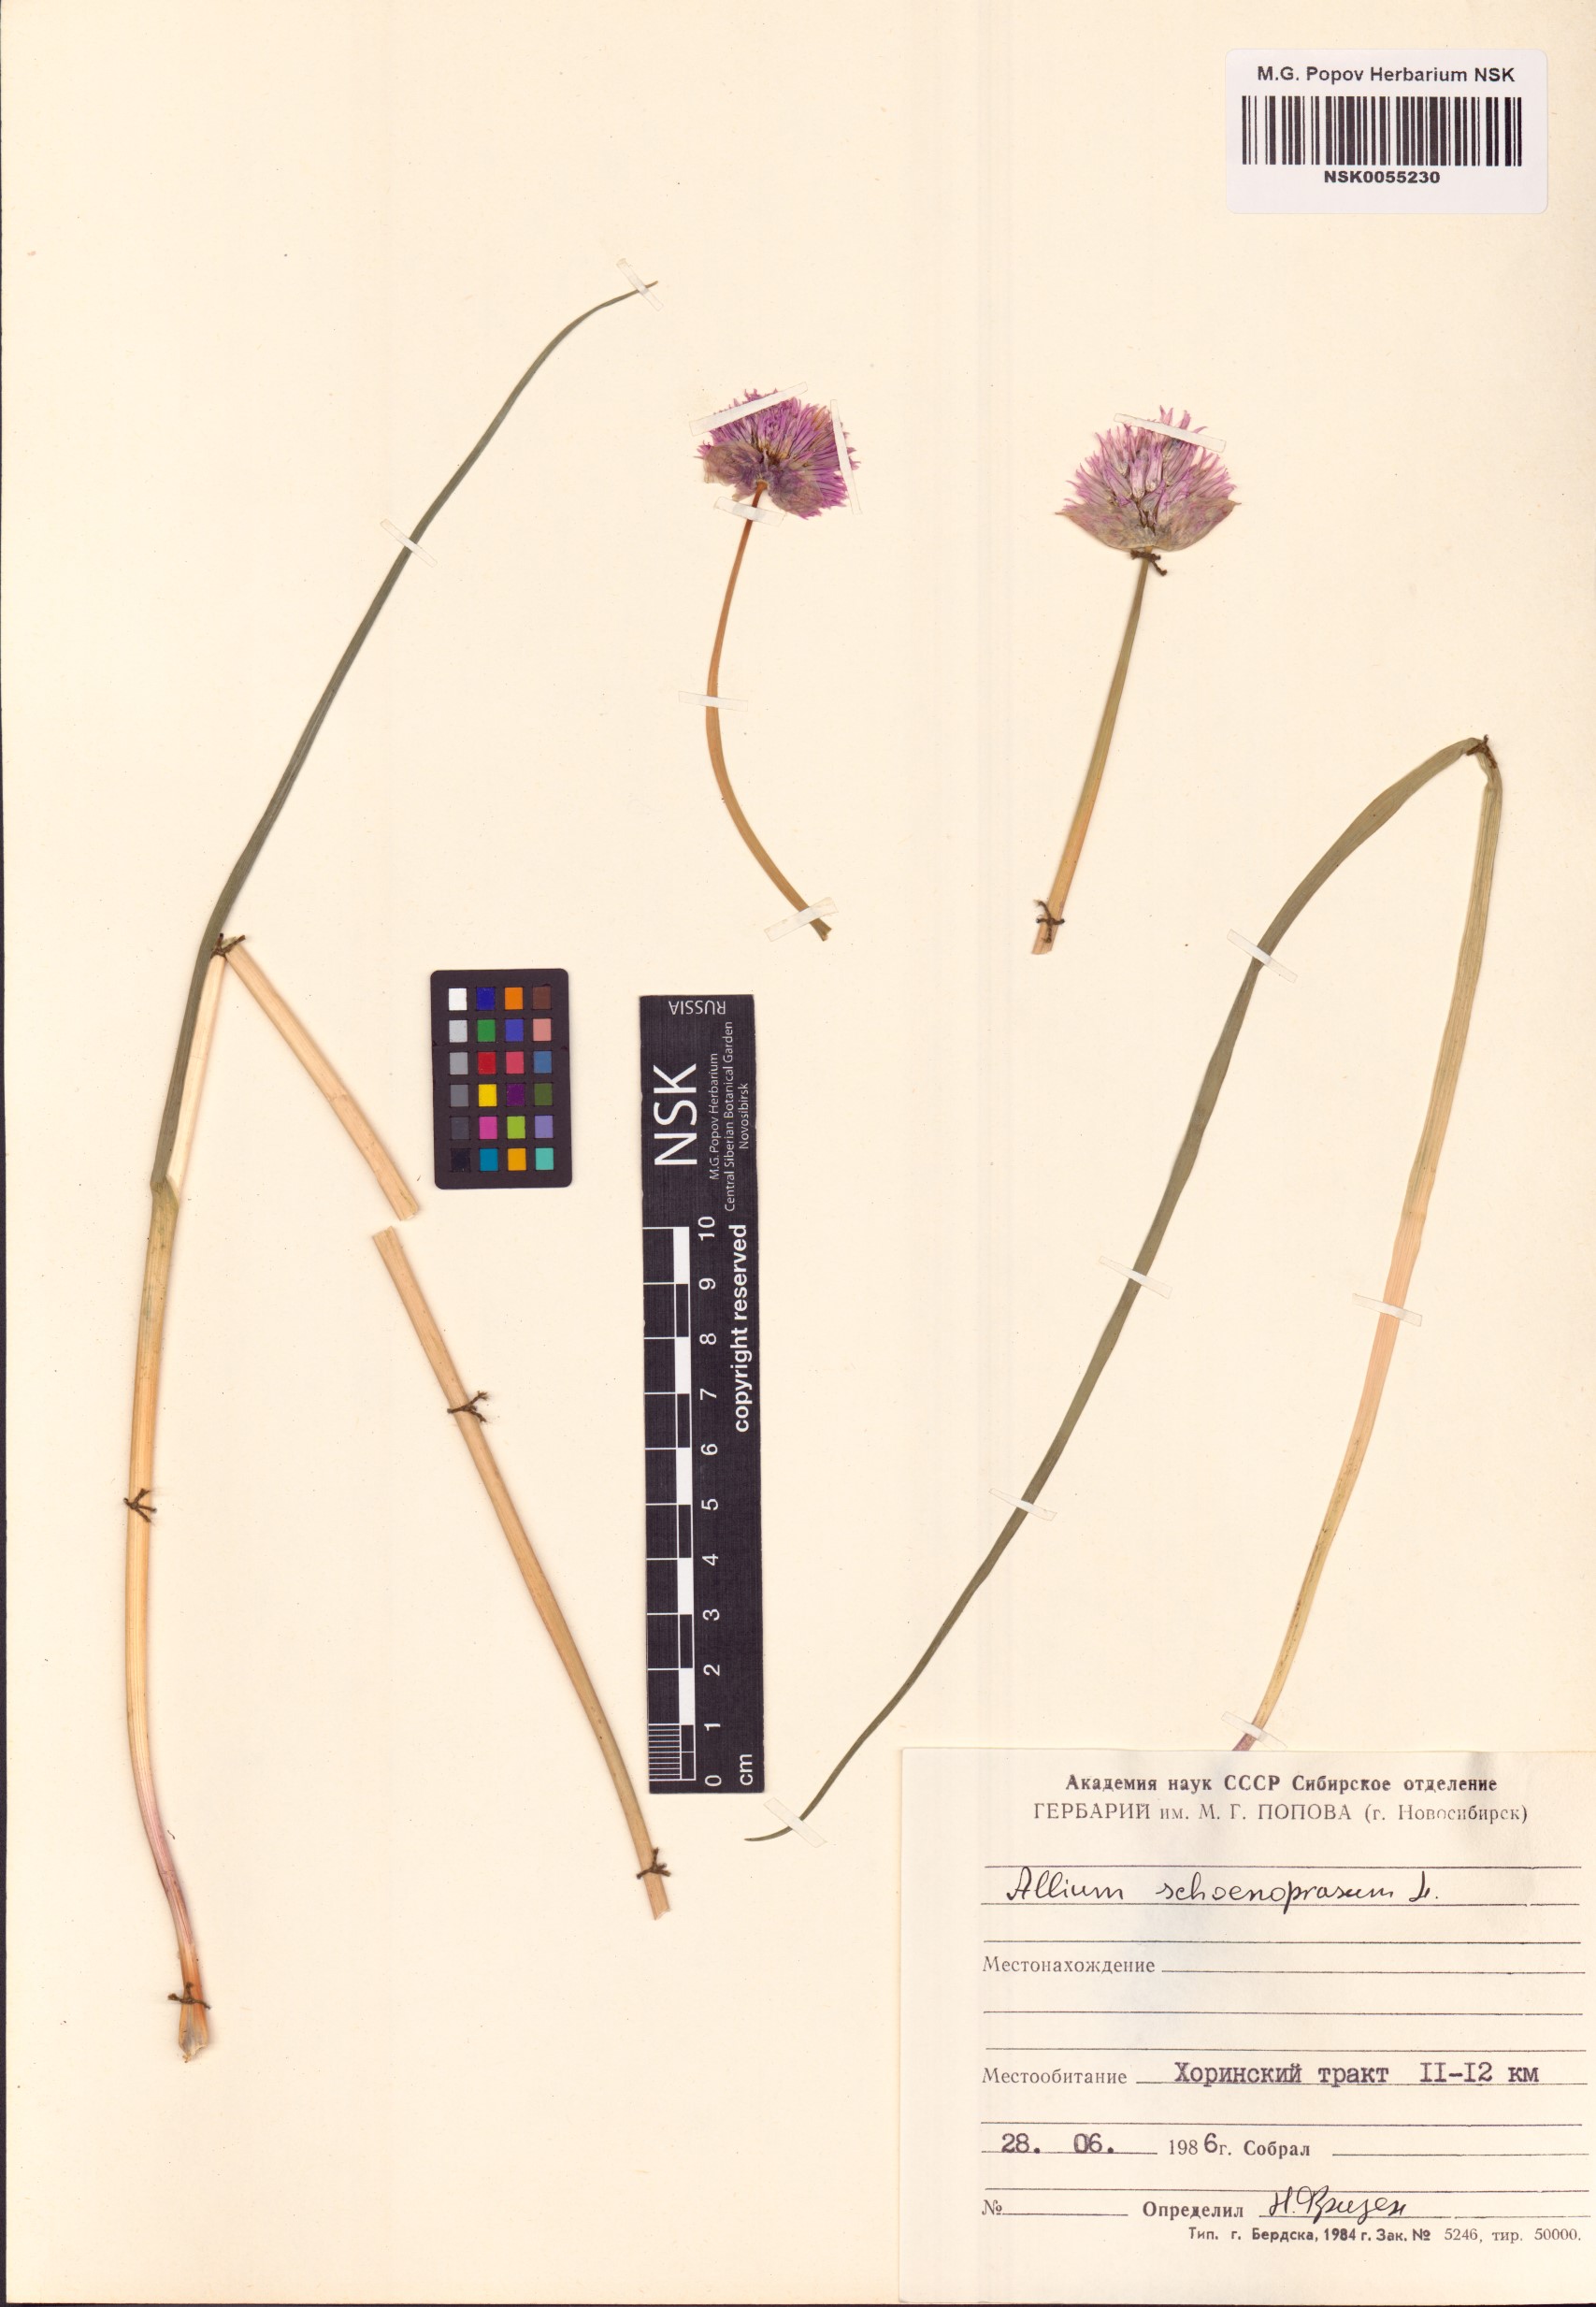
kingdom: Plantae
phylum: Tracheophyta
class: Liliopsida
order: Asparagales
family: Amaryllidaceae
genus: Allium
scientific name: Allium schoenoprasum
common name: Chives
